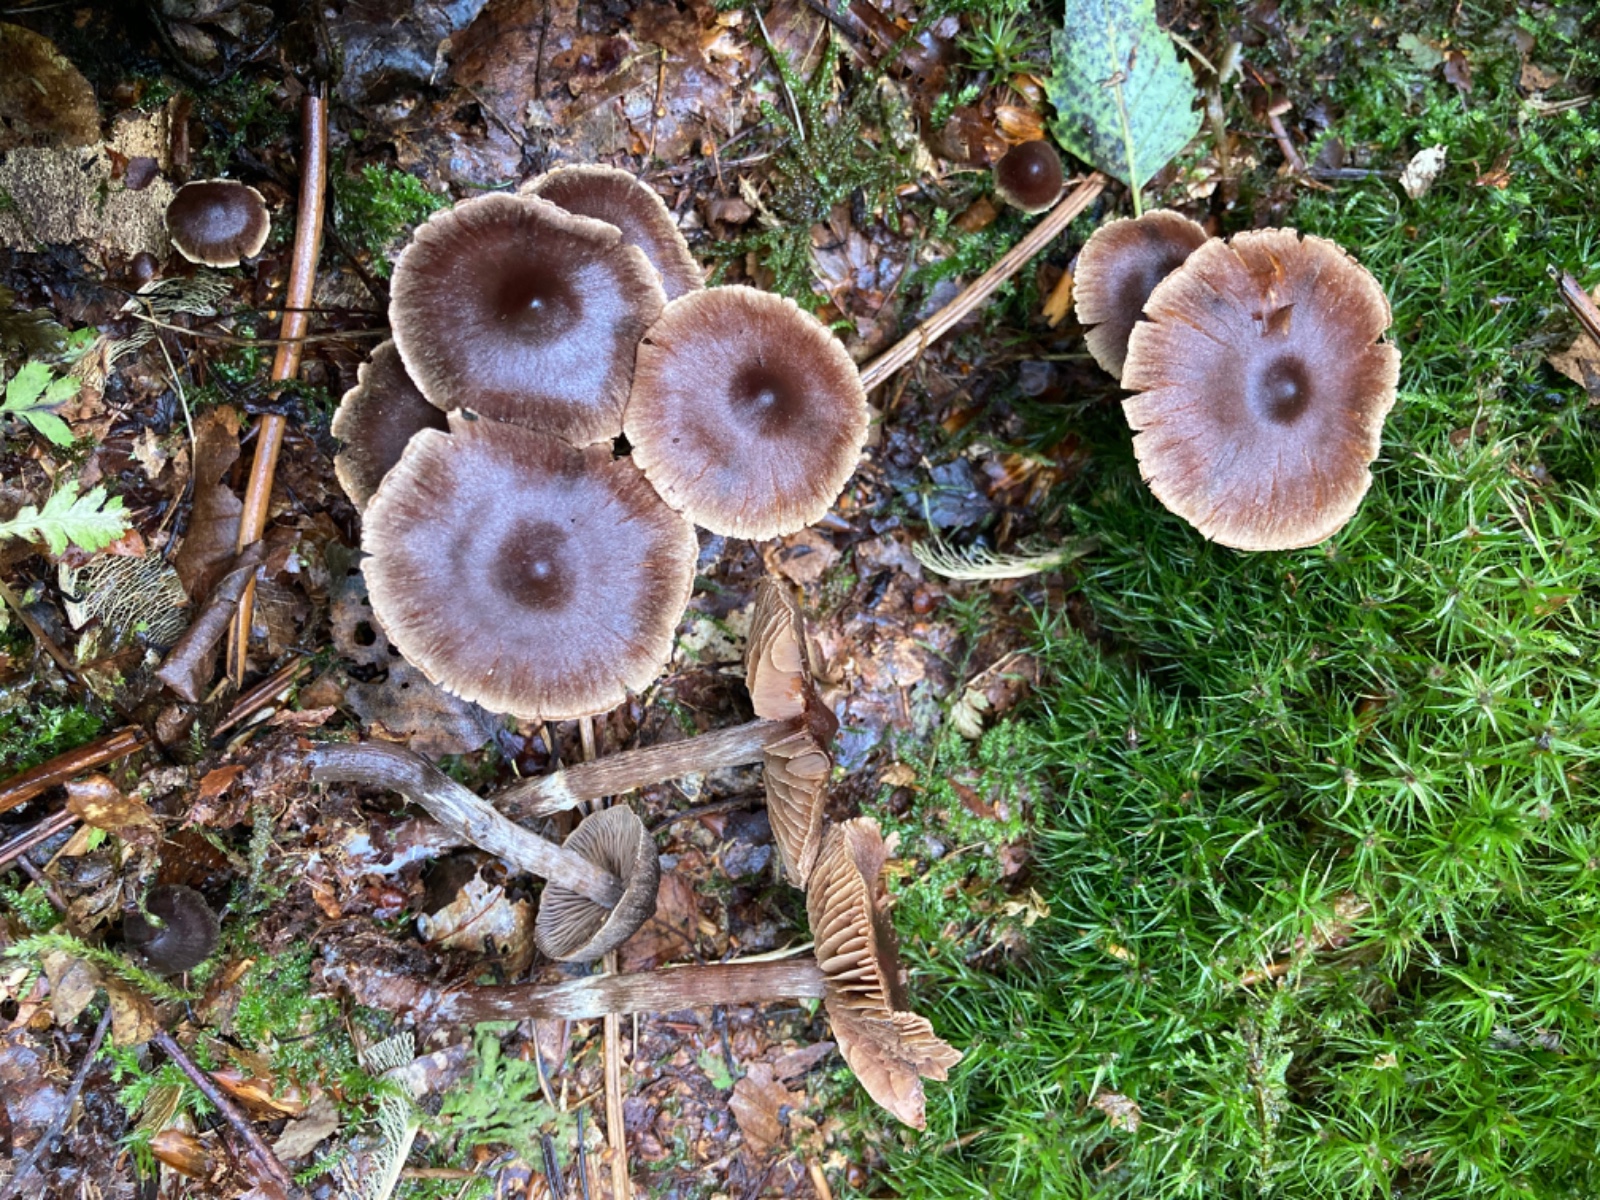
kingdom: Fungi
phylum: Basidiomycota
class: Agaricomycetes
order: Agaricales
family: Cortinariaceae
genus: Cortinarius
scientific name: Cortinarius umbrinolens
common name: mørk slørhat
